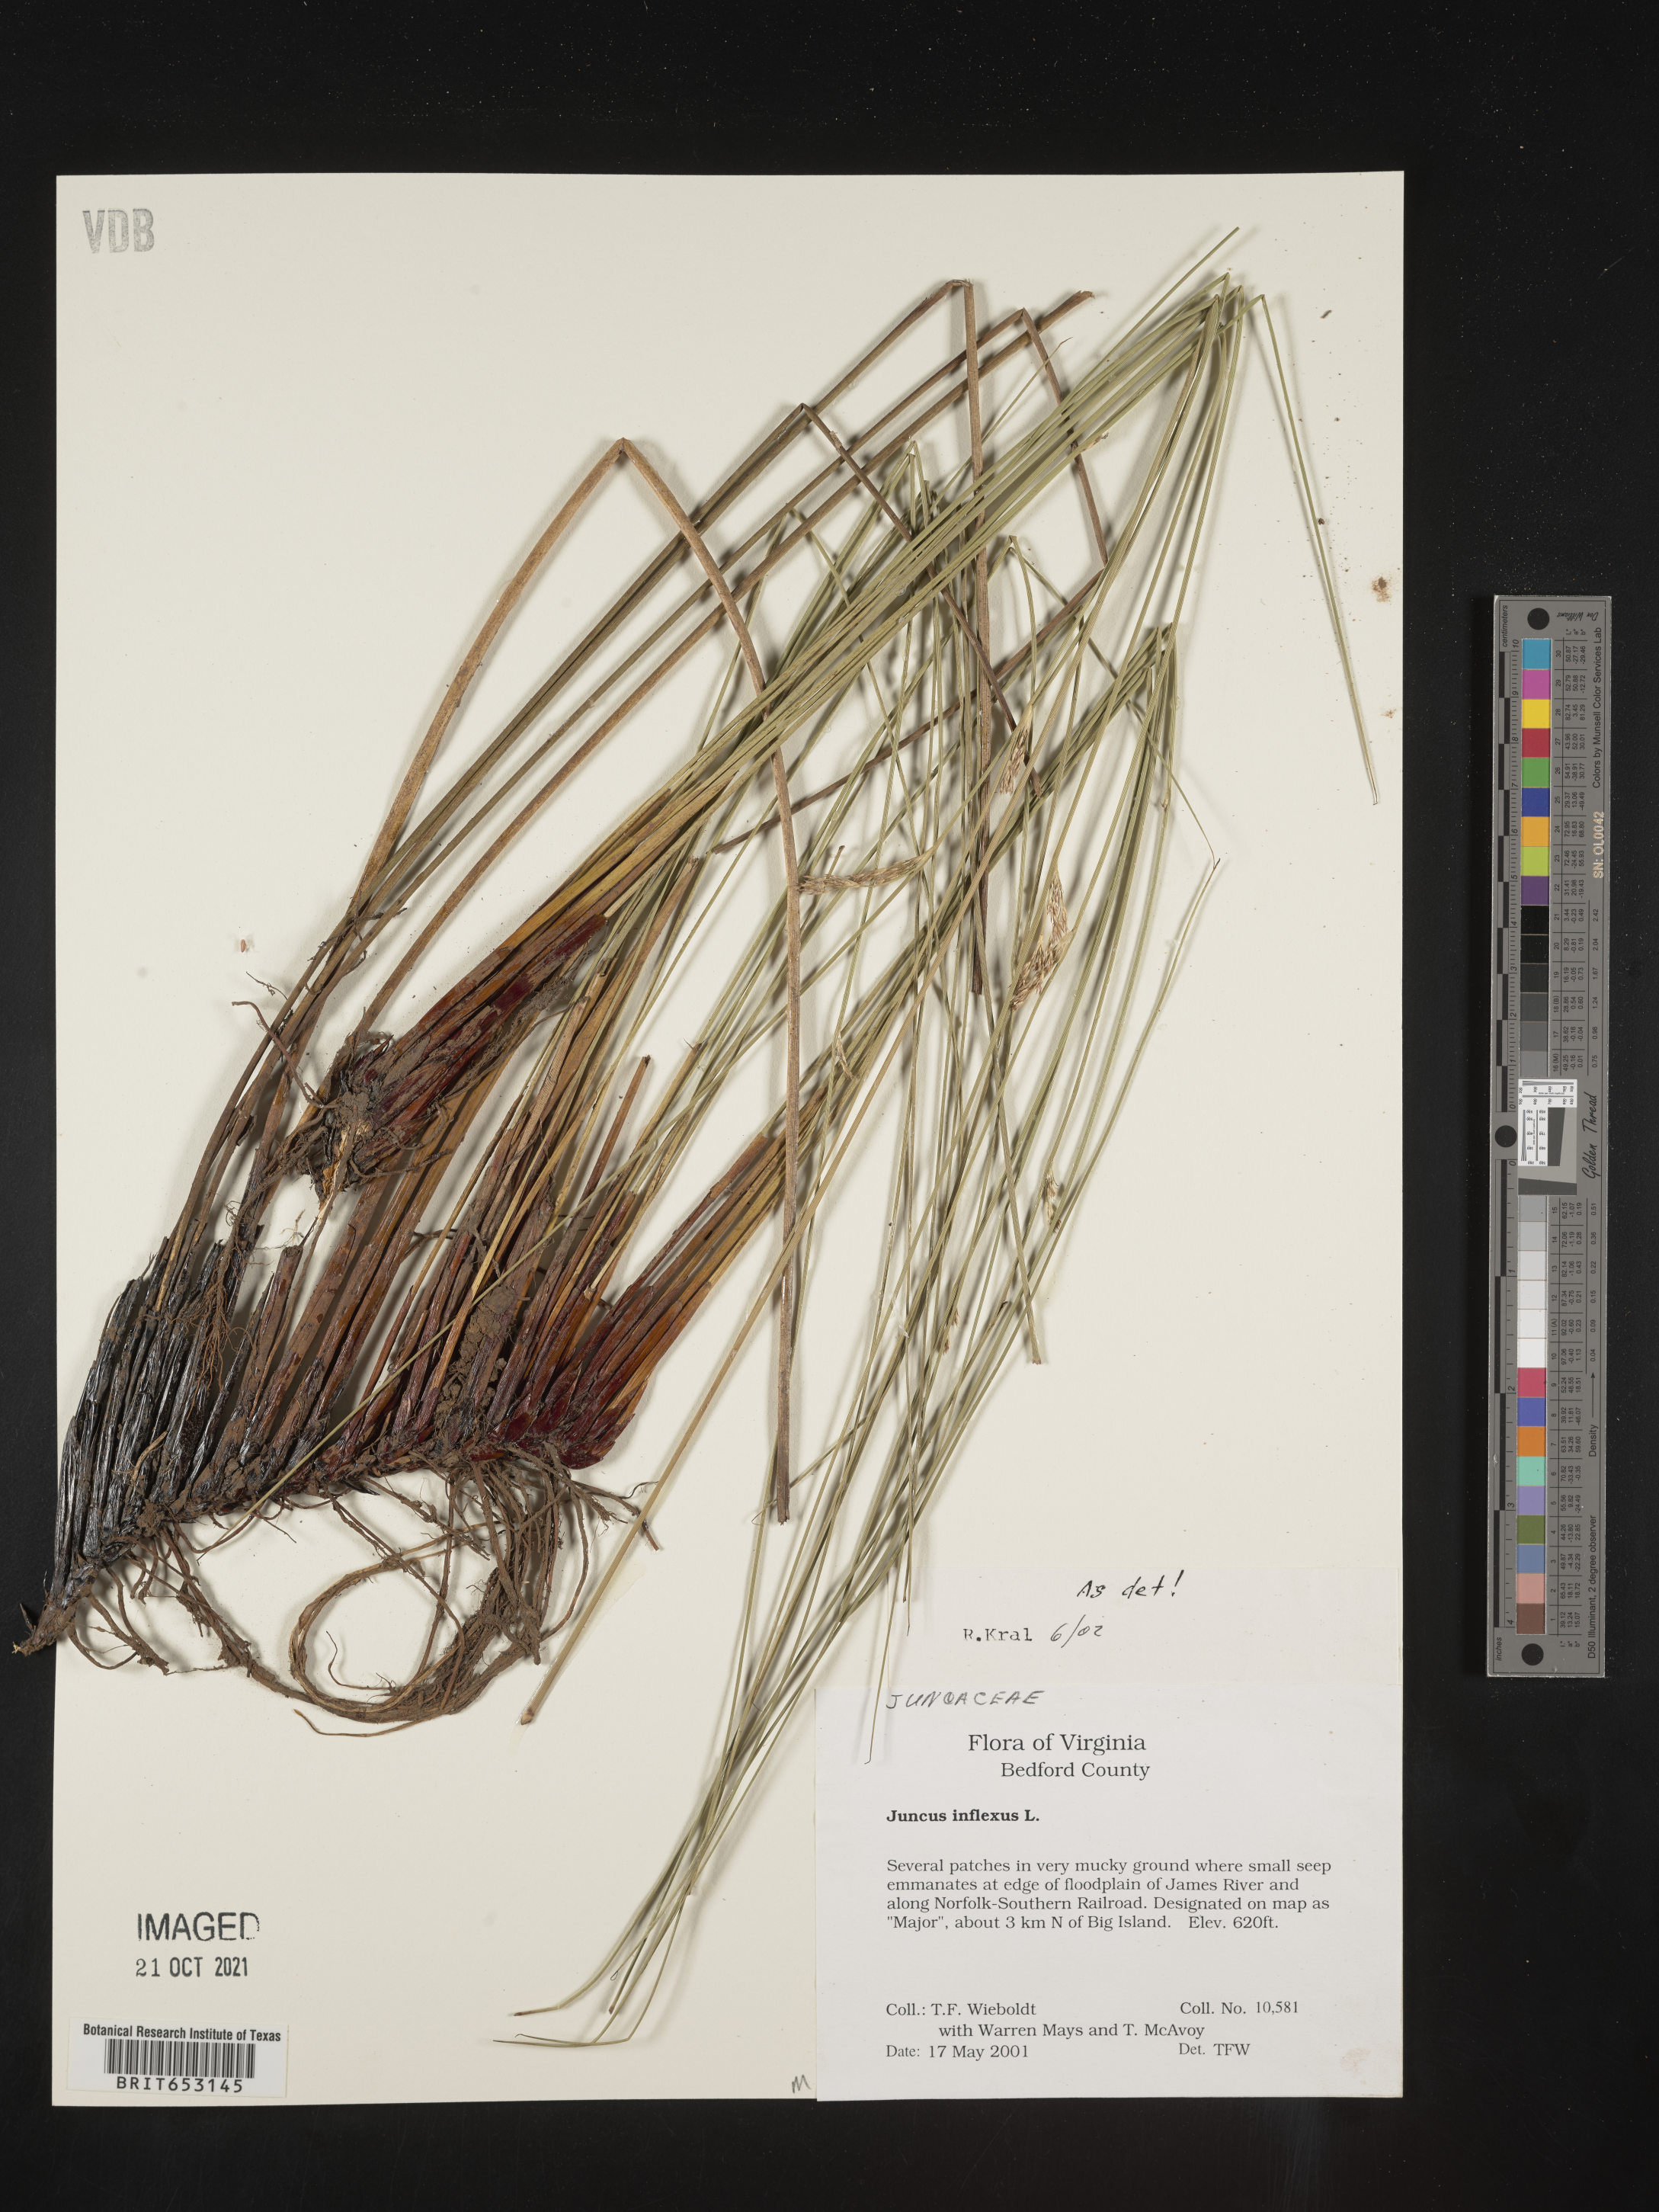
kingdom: Plantae
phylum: Tracheophyta
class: Liliopsida
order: Poales
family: Juncaceae
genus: Juncus
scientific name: Juncus inflexus
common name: Hard rush
